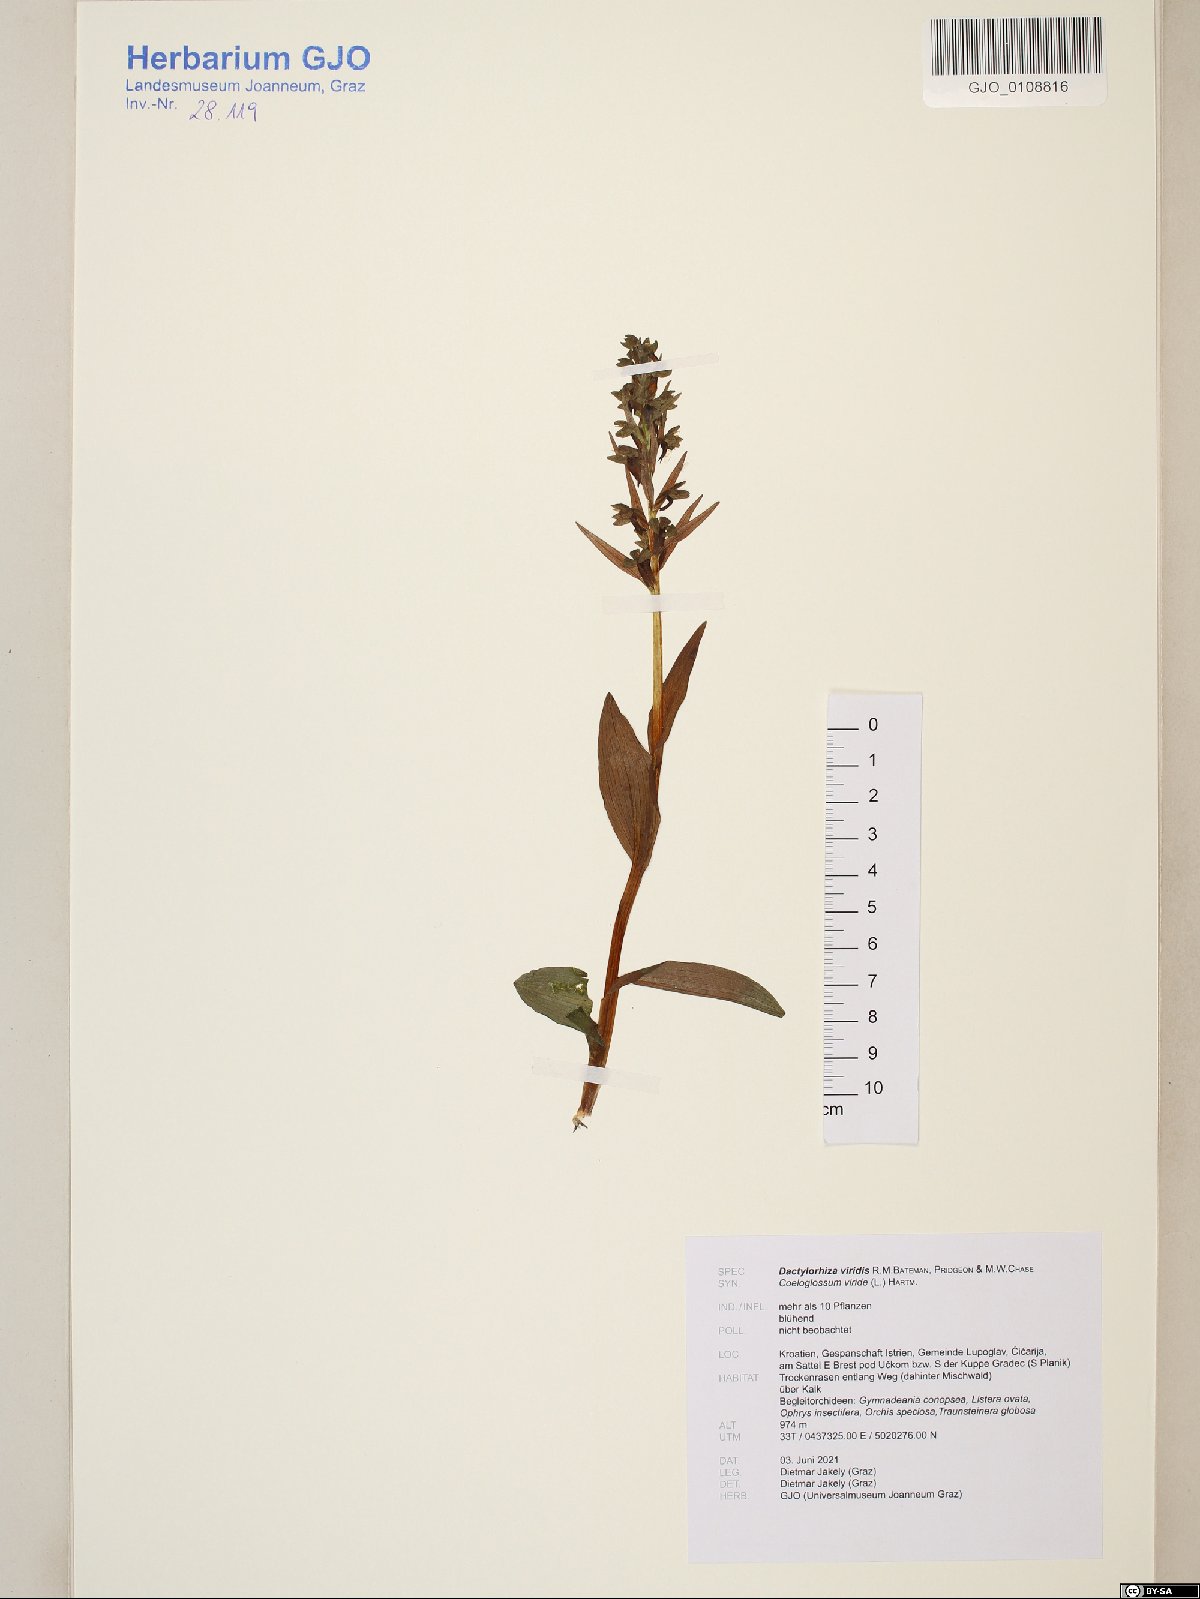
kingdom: Plantae
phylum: Tracheophyta
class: Liliopsida
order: Asparagales
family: Orchidaceae
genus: Dactylorhiza
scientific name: Dactylorhiza viridis
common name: Longbract frog orchid
